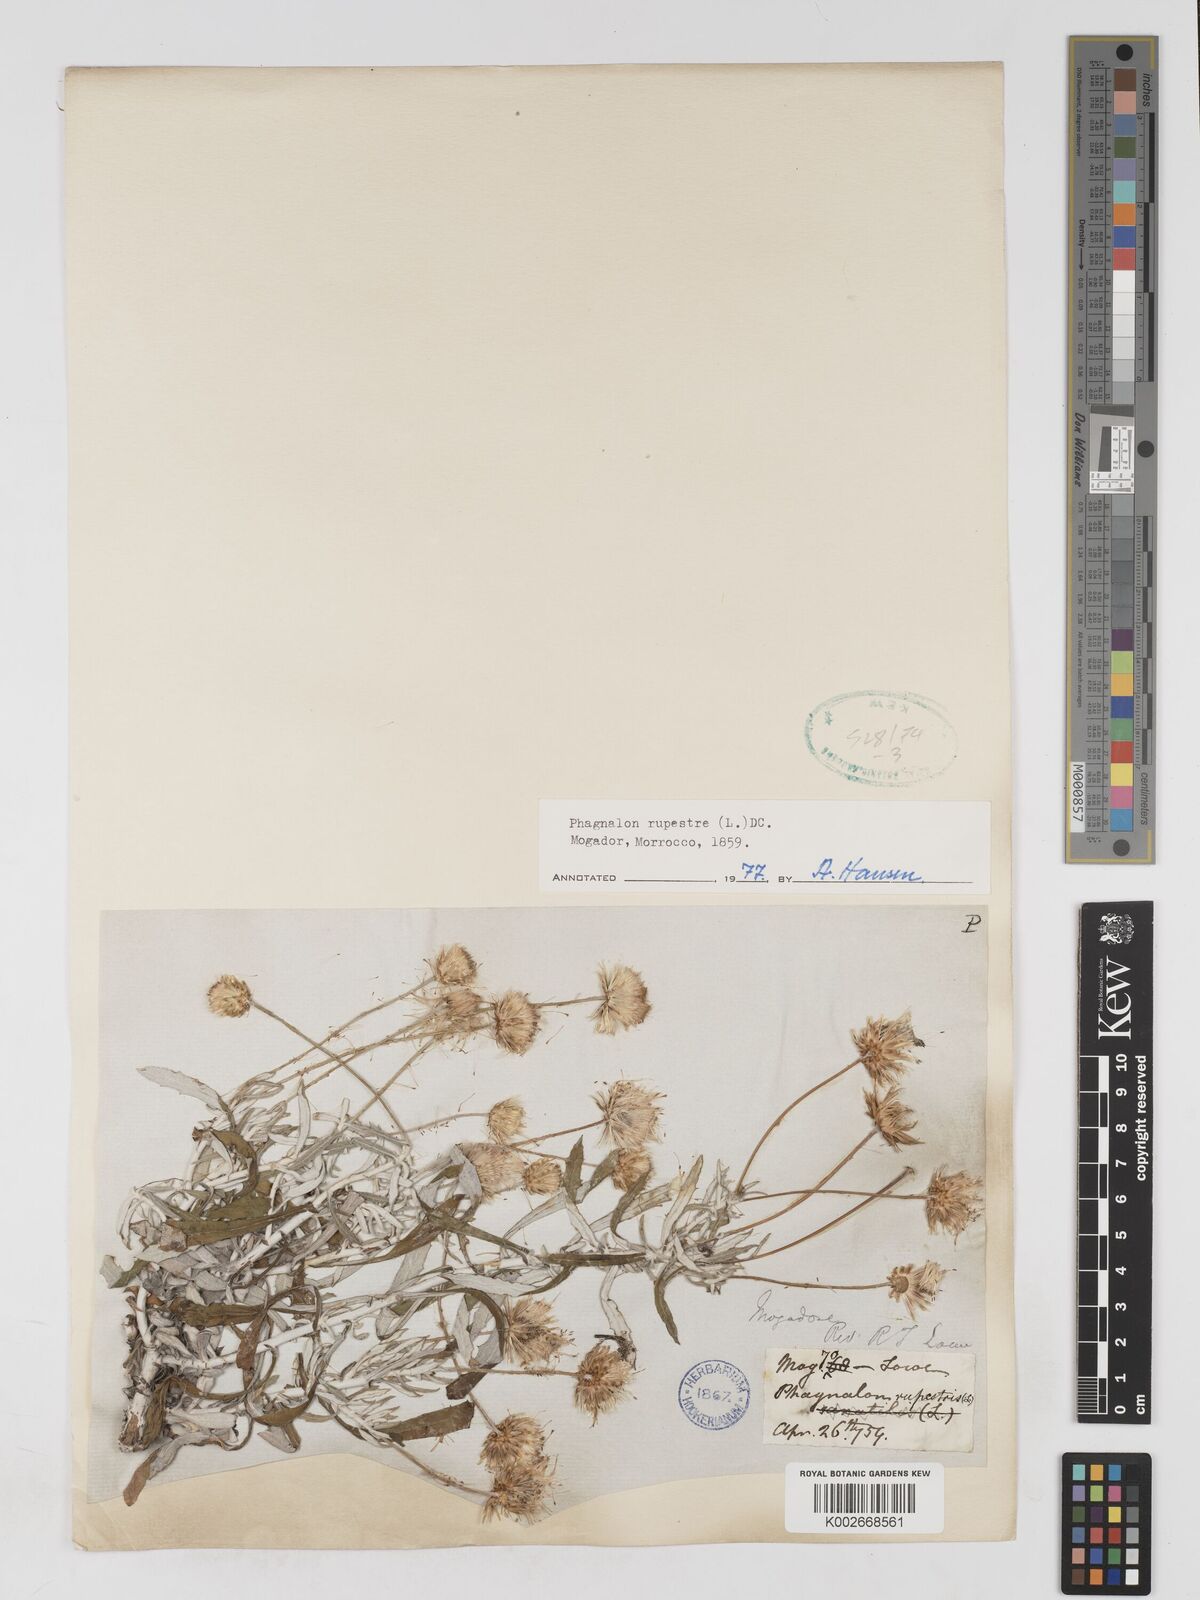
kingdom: Plantae
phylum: Tracheophyta
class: Magnoliopsida
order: Asterales
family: Asteraceae
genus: Phagnalon
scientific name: Phagnalon rupestre
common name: Rock phagnalon
